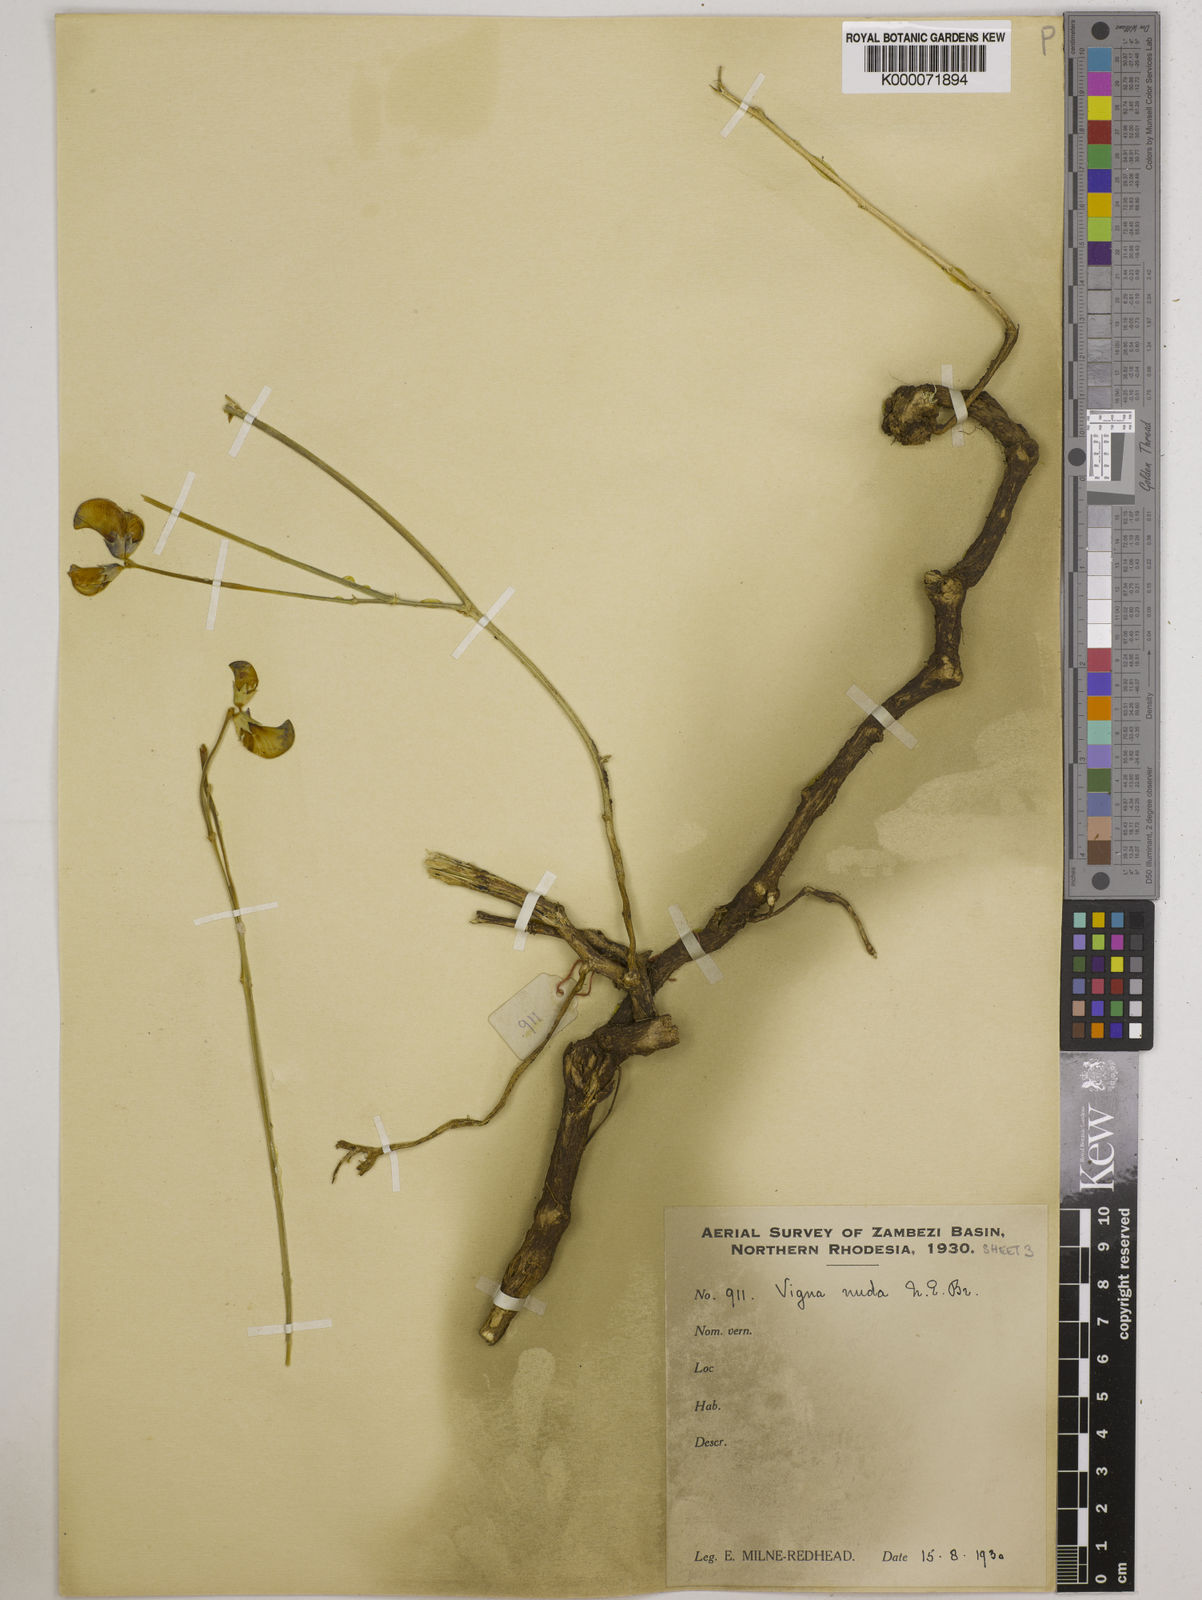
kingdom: Plantae
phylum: Tracheophyta
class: Magnoliopsida
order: Fabales
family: Fabaceae
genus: Vigna
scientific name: Vigna antunesii
